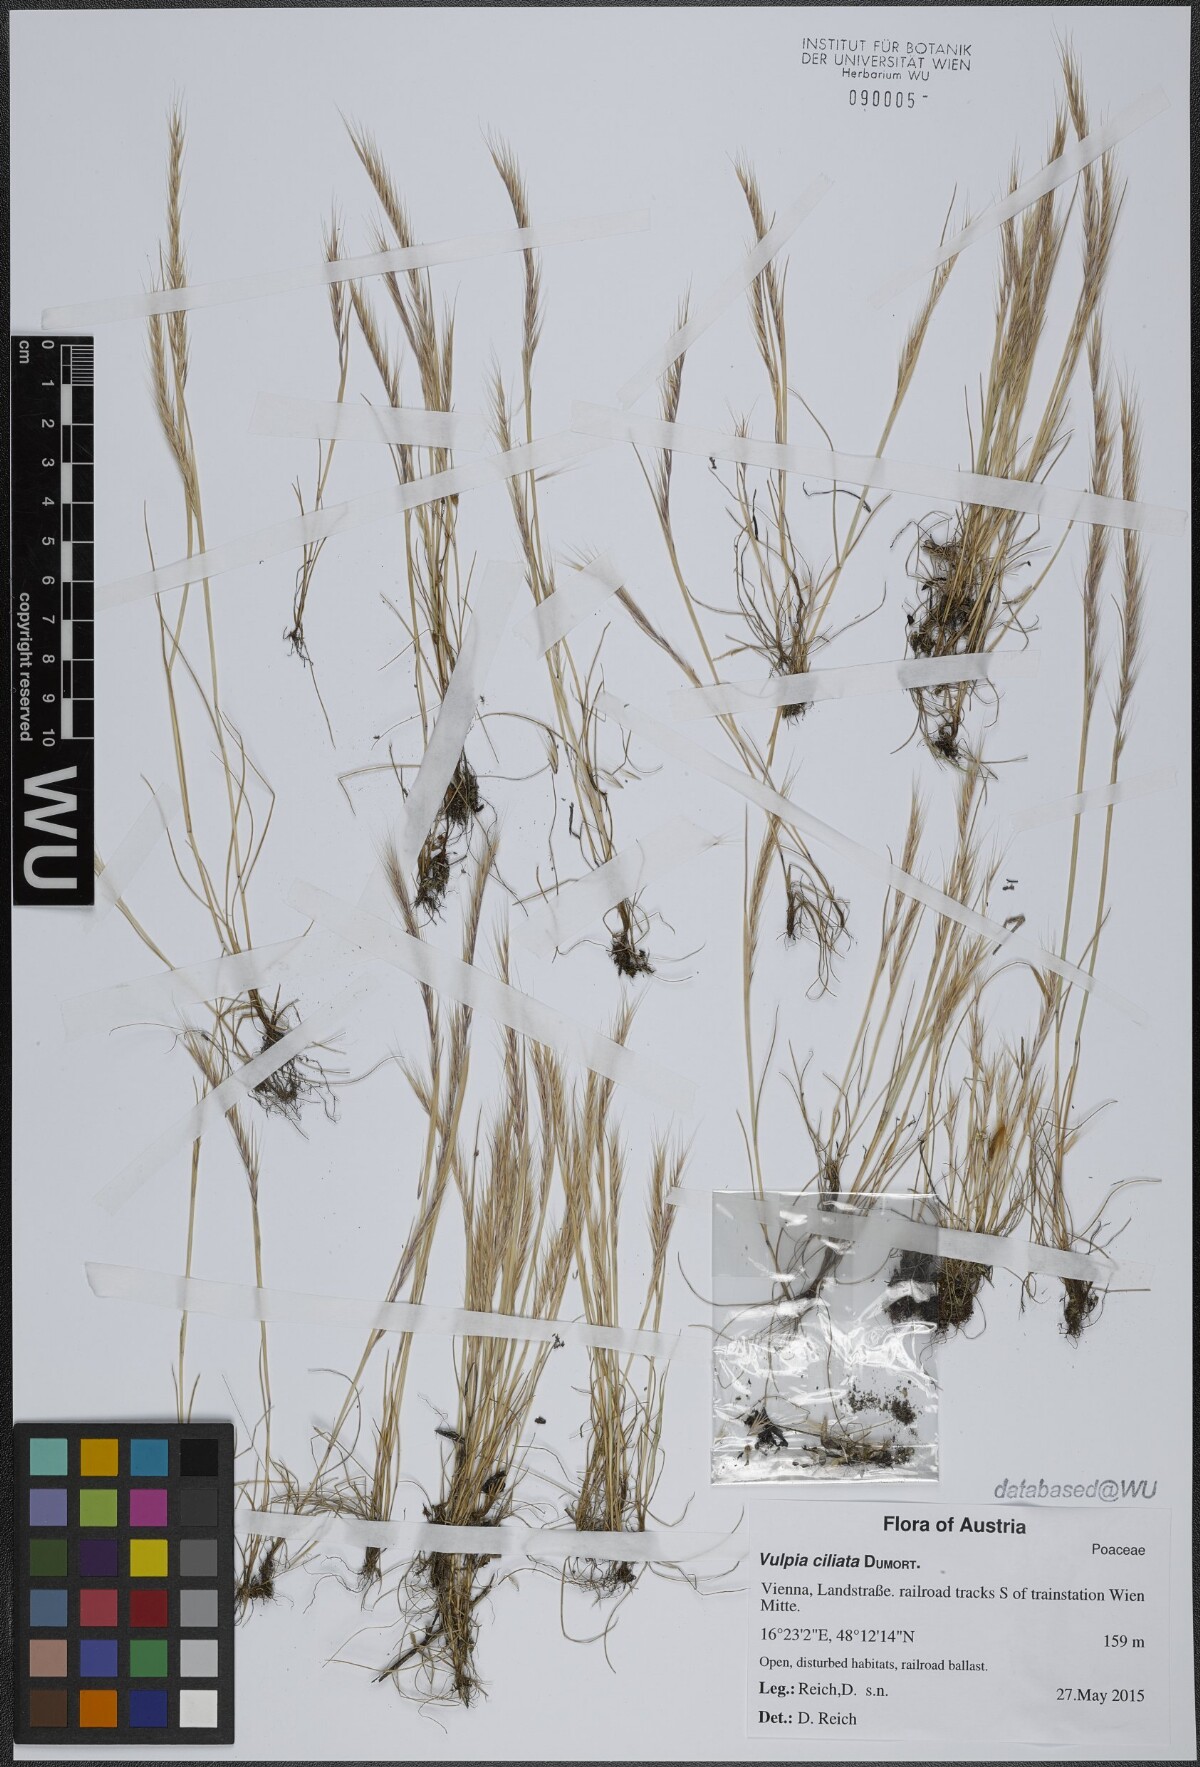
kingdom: Plantae
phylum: Tracheophyta
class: Liliopsida
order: Poales
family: Poaceae
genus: Festuca
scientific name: Festuca ambigua
